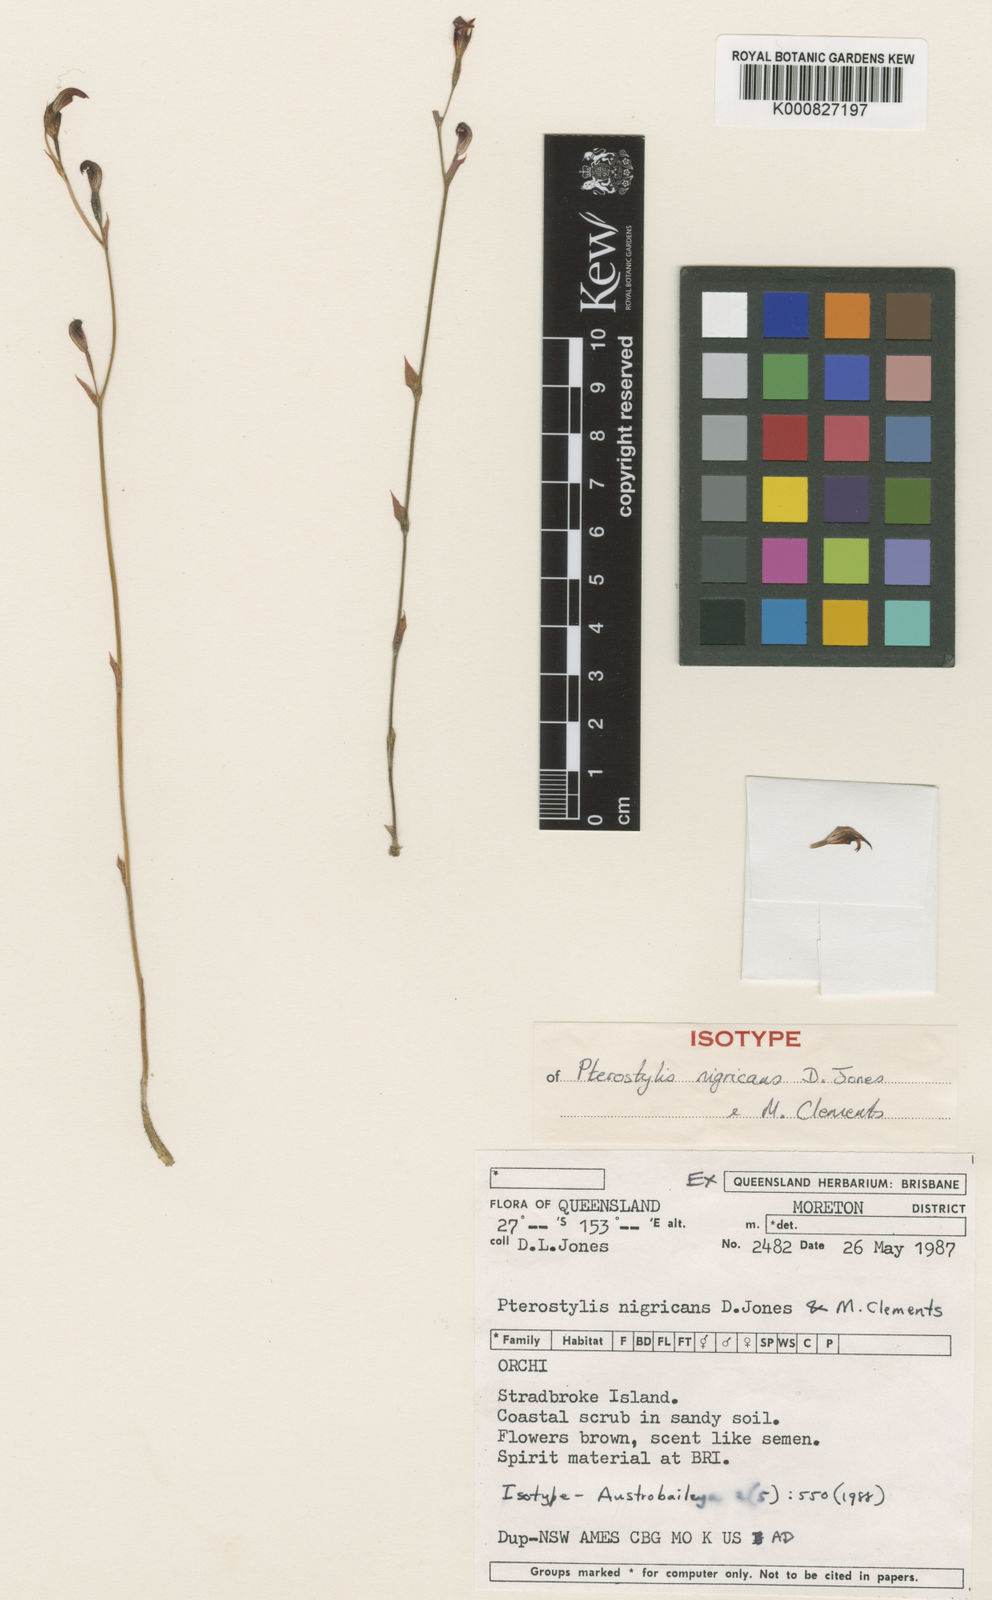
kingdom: Plantae
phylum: Tracheophyta
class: Liliopsida
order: Asparagales
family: Orchidaceae
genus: Pterostylis
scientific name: Pterostylis nigricans
